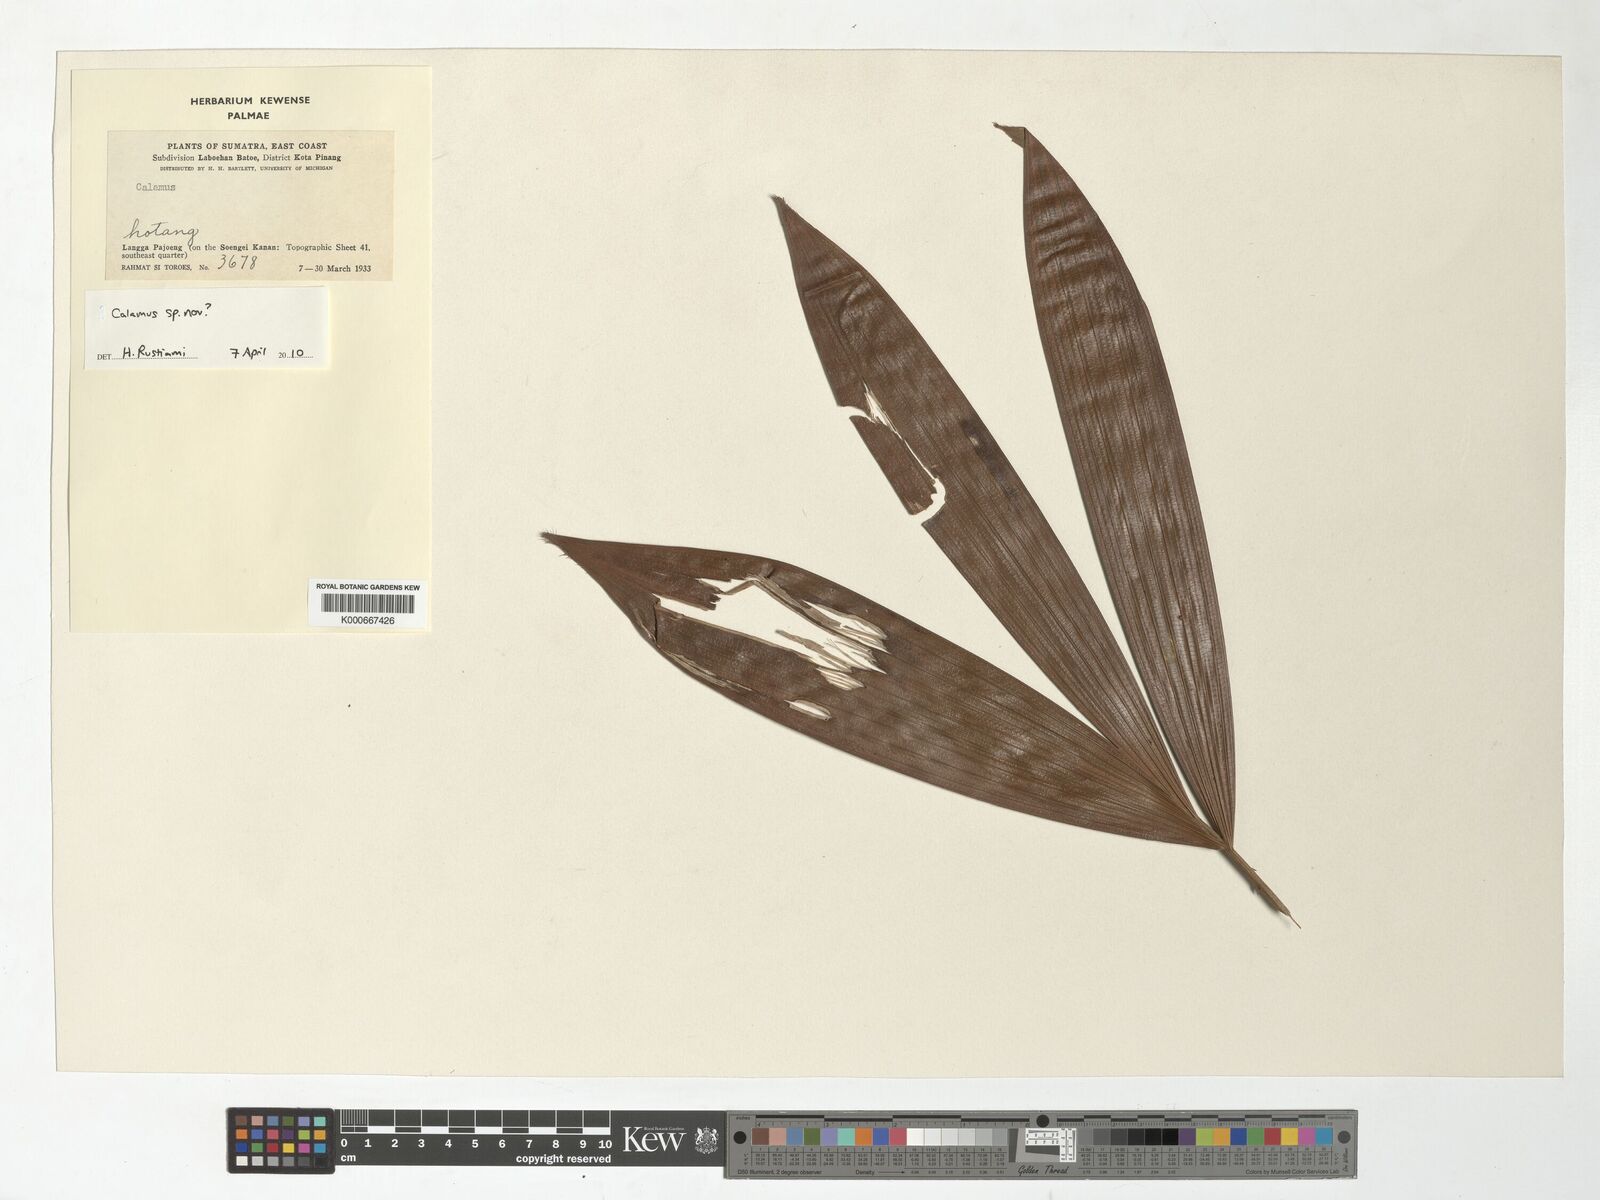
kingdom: Plantae
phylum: Tracheophyta
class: Liliopsida
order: Arecales
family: Arecaceae
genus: Calamus
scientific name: Calamus
